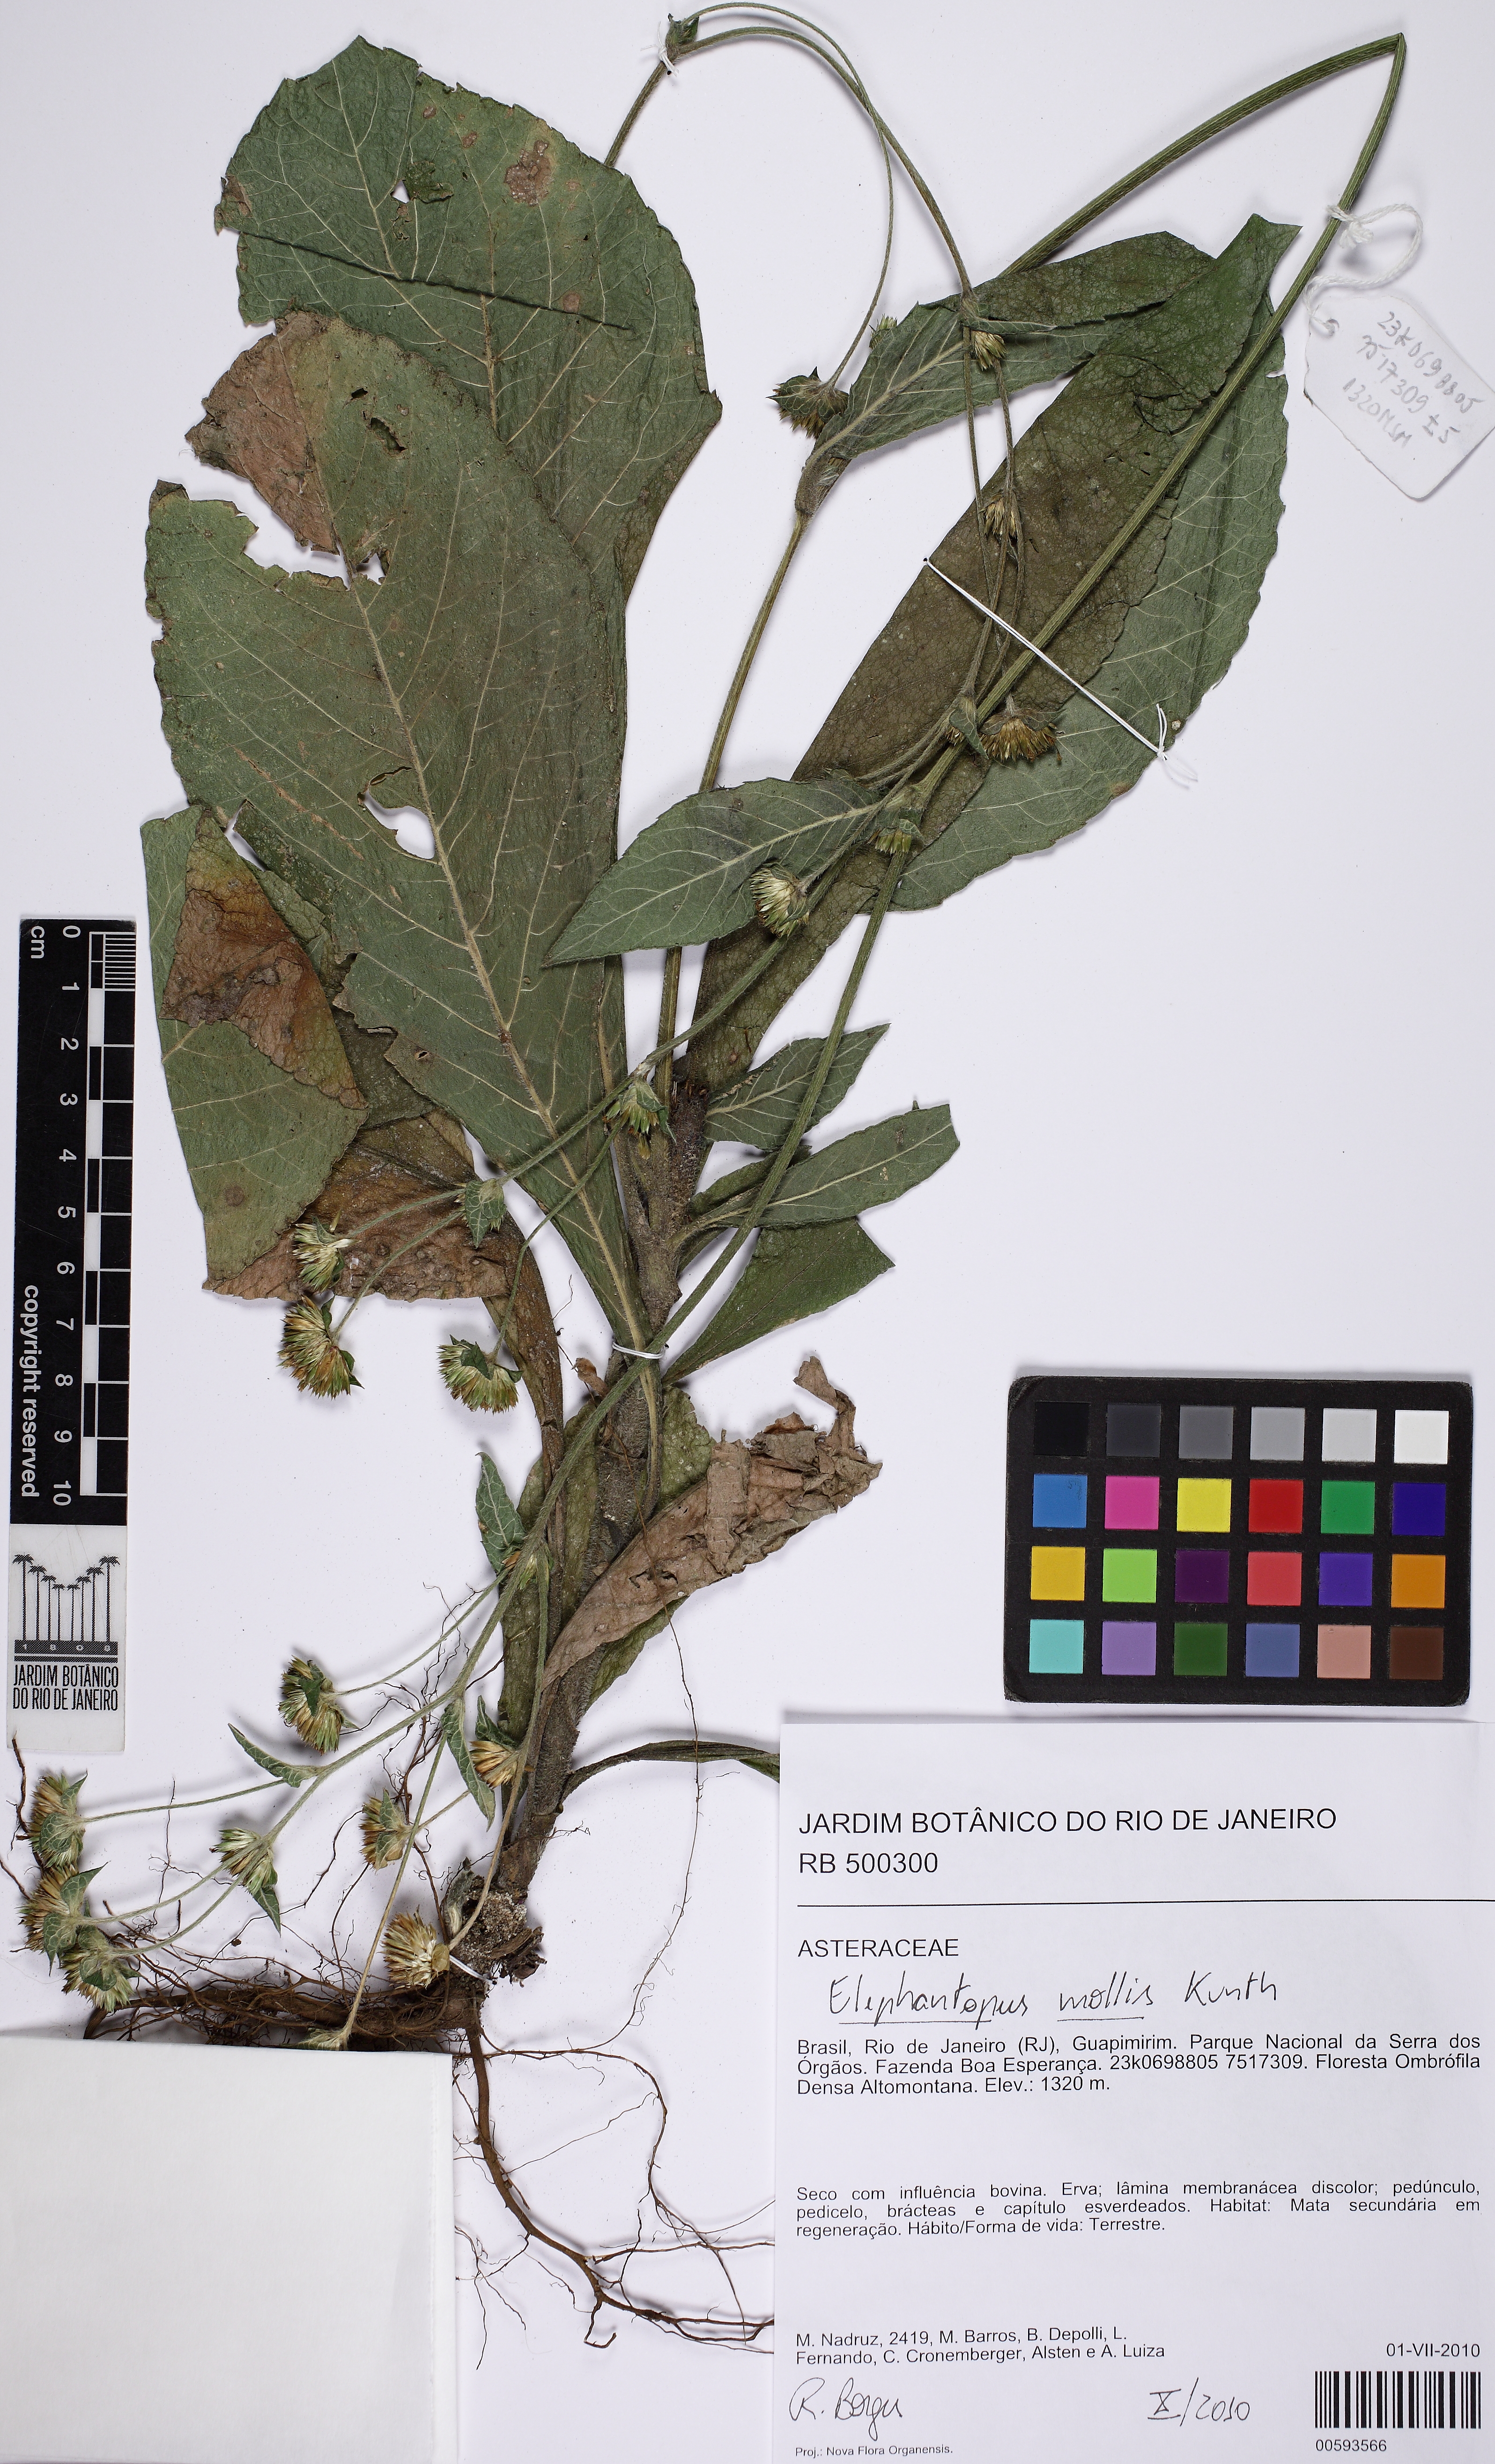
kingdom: Plantae
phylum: Tracheophyta
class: Magnoliopsida
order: Asterales
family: Asteraceae
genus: Elephantopus
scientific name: Elephantopus mollis
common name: Soft elephantsfoot
